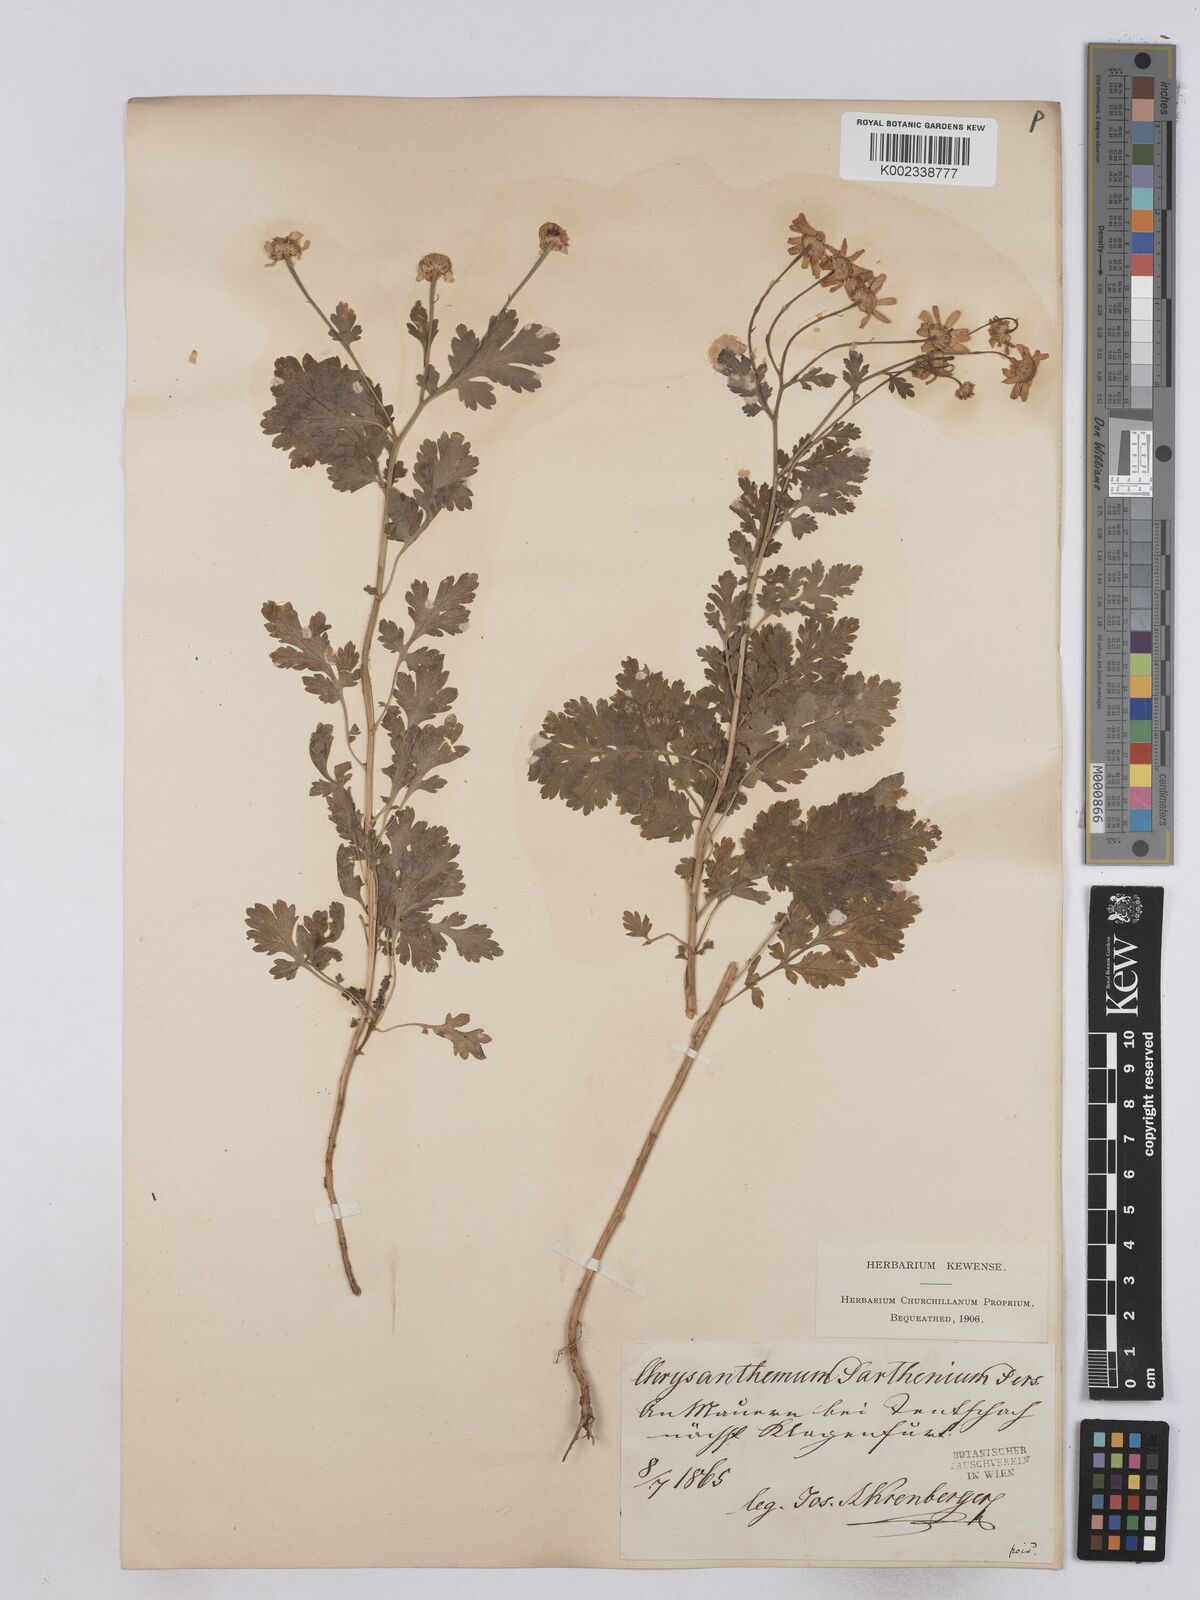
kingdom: Plantae
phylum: Tracheophyta
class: Magnoliopsida
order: Asterales
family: Asteraceae
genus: Tanacetum
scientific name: Tanacetum parthenium
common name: Feverfew
